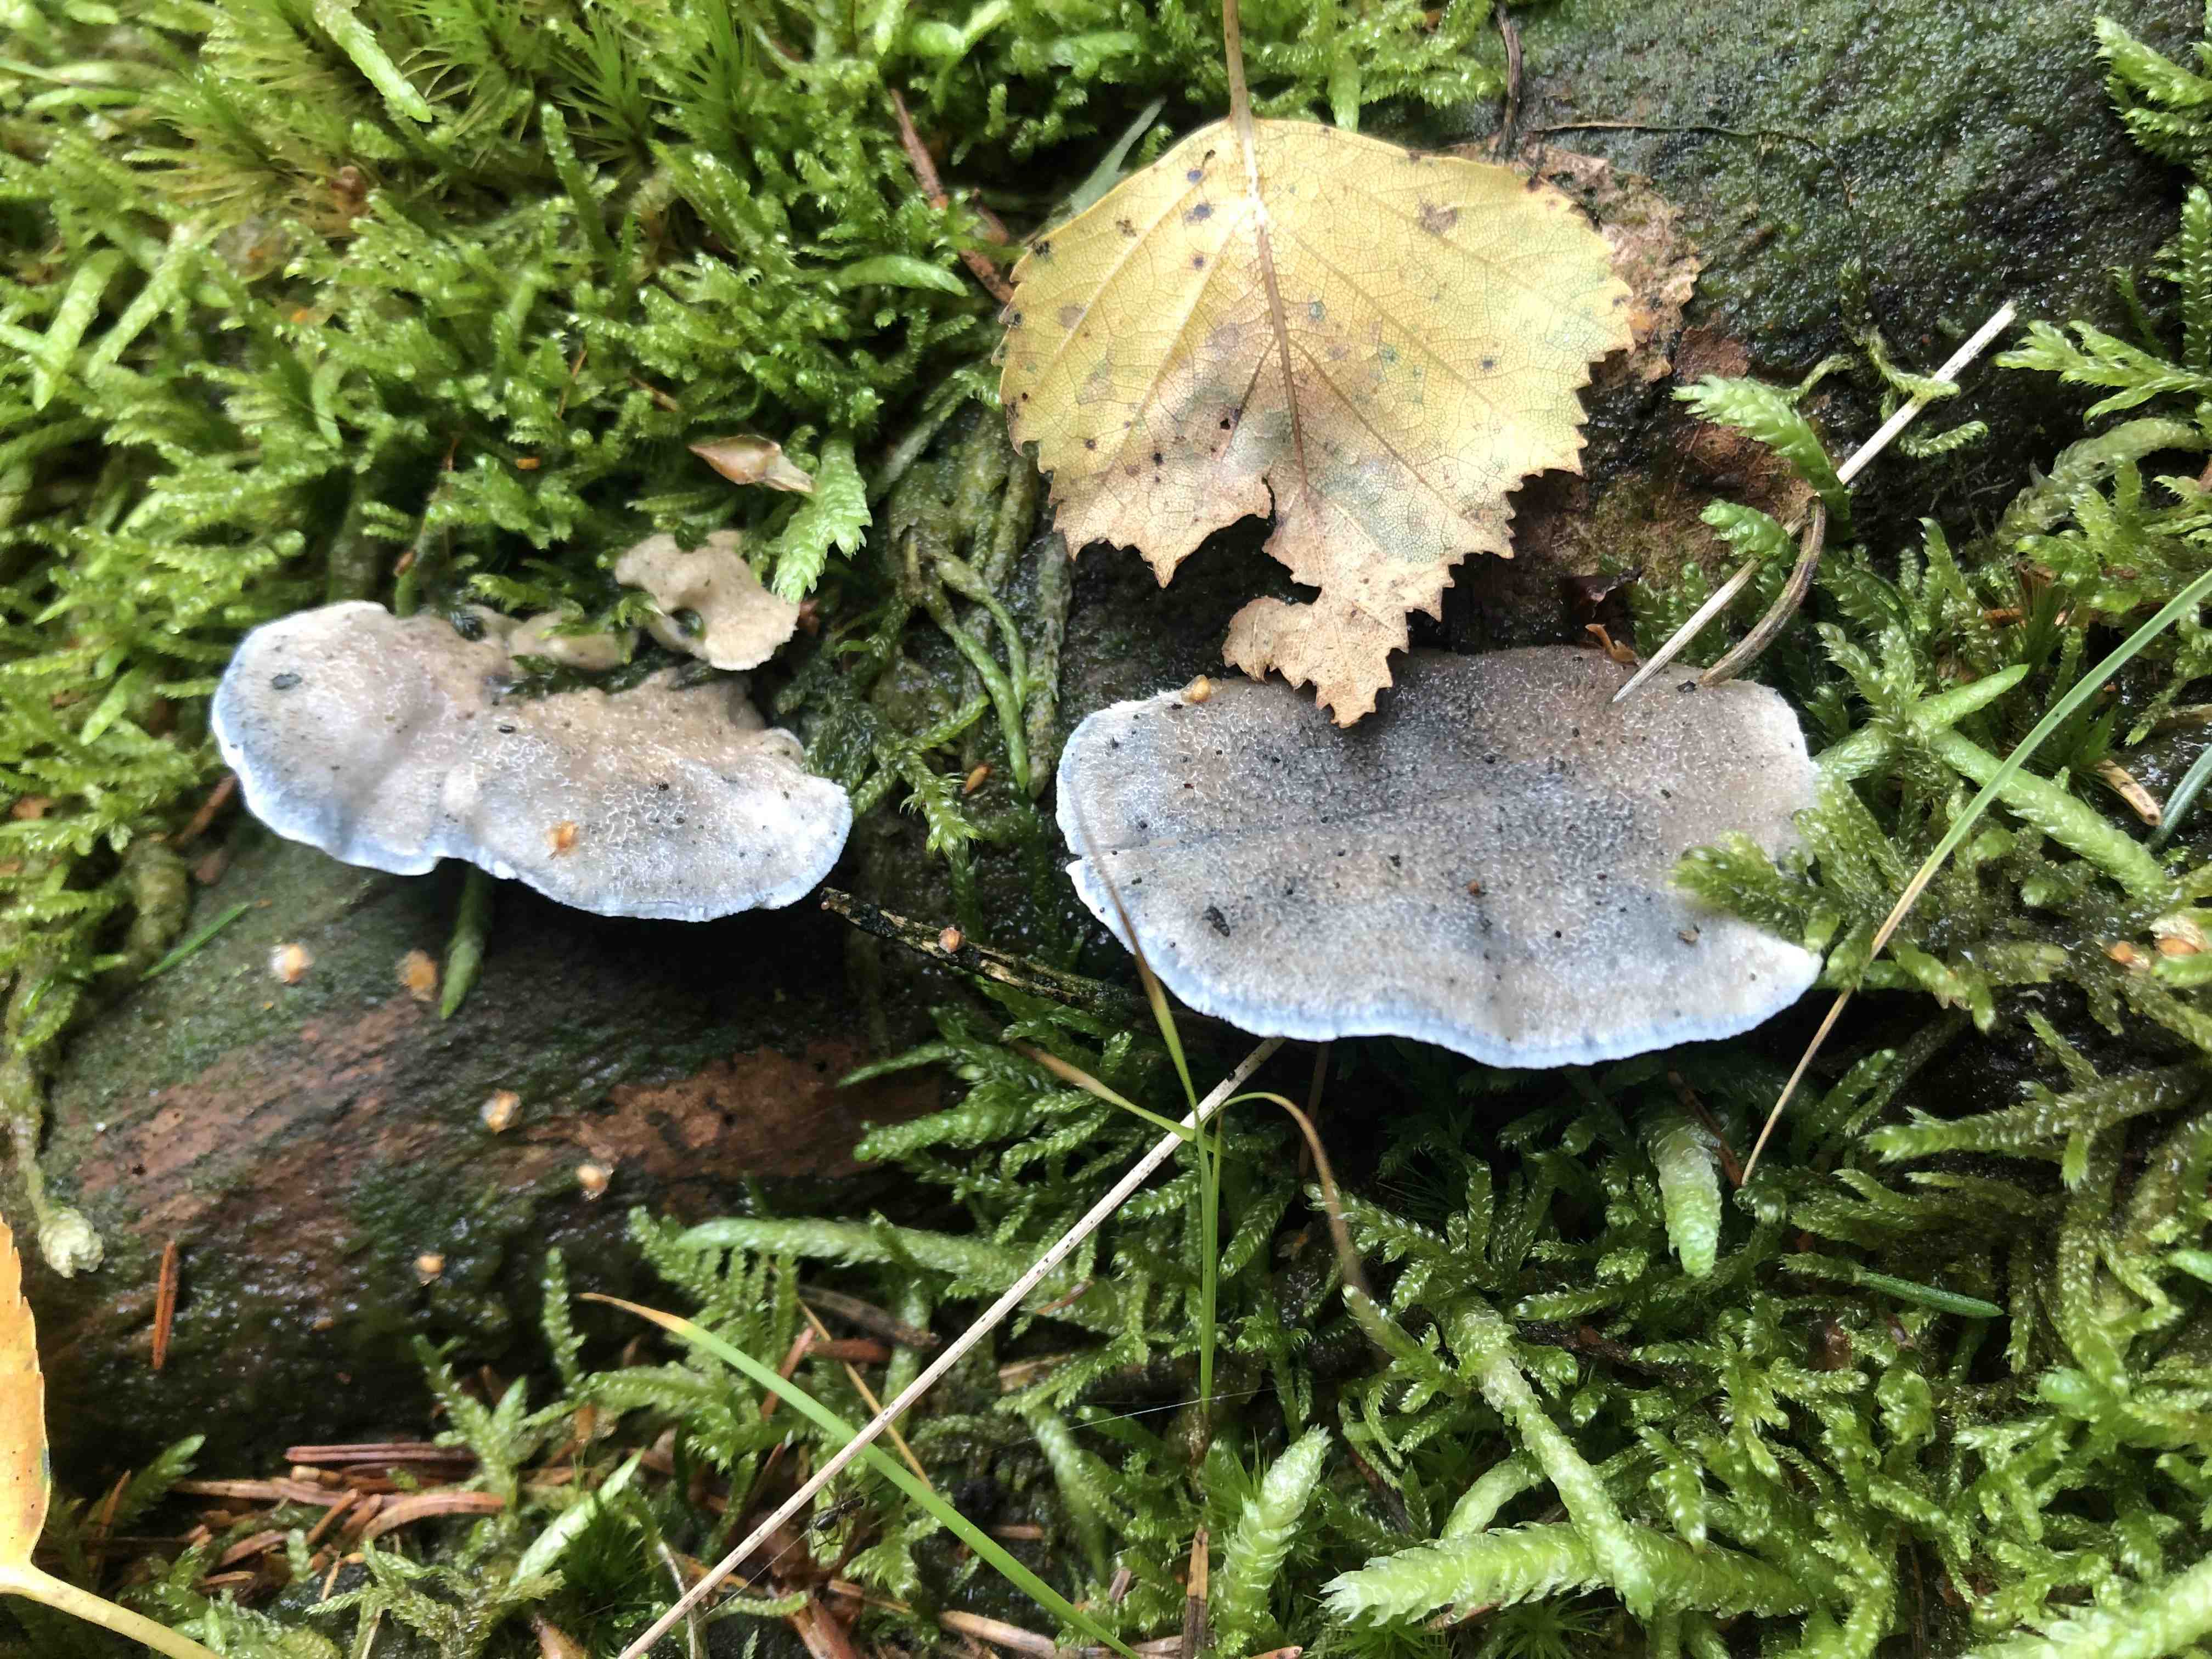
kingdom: Fungi
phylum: Basidiomycota
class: Agaricomycetes
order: Polyporales
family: Polyporaceae
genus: Cyanosporus
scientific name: Cyanosporus caesius
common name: blålig kødporesvamp
